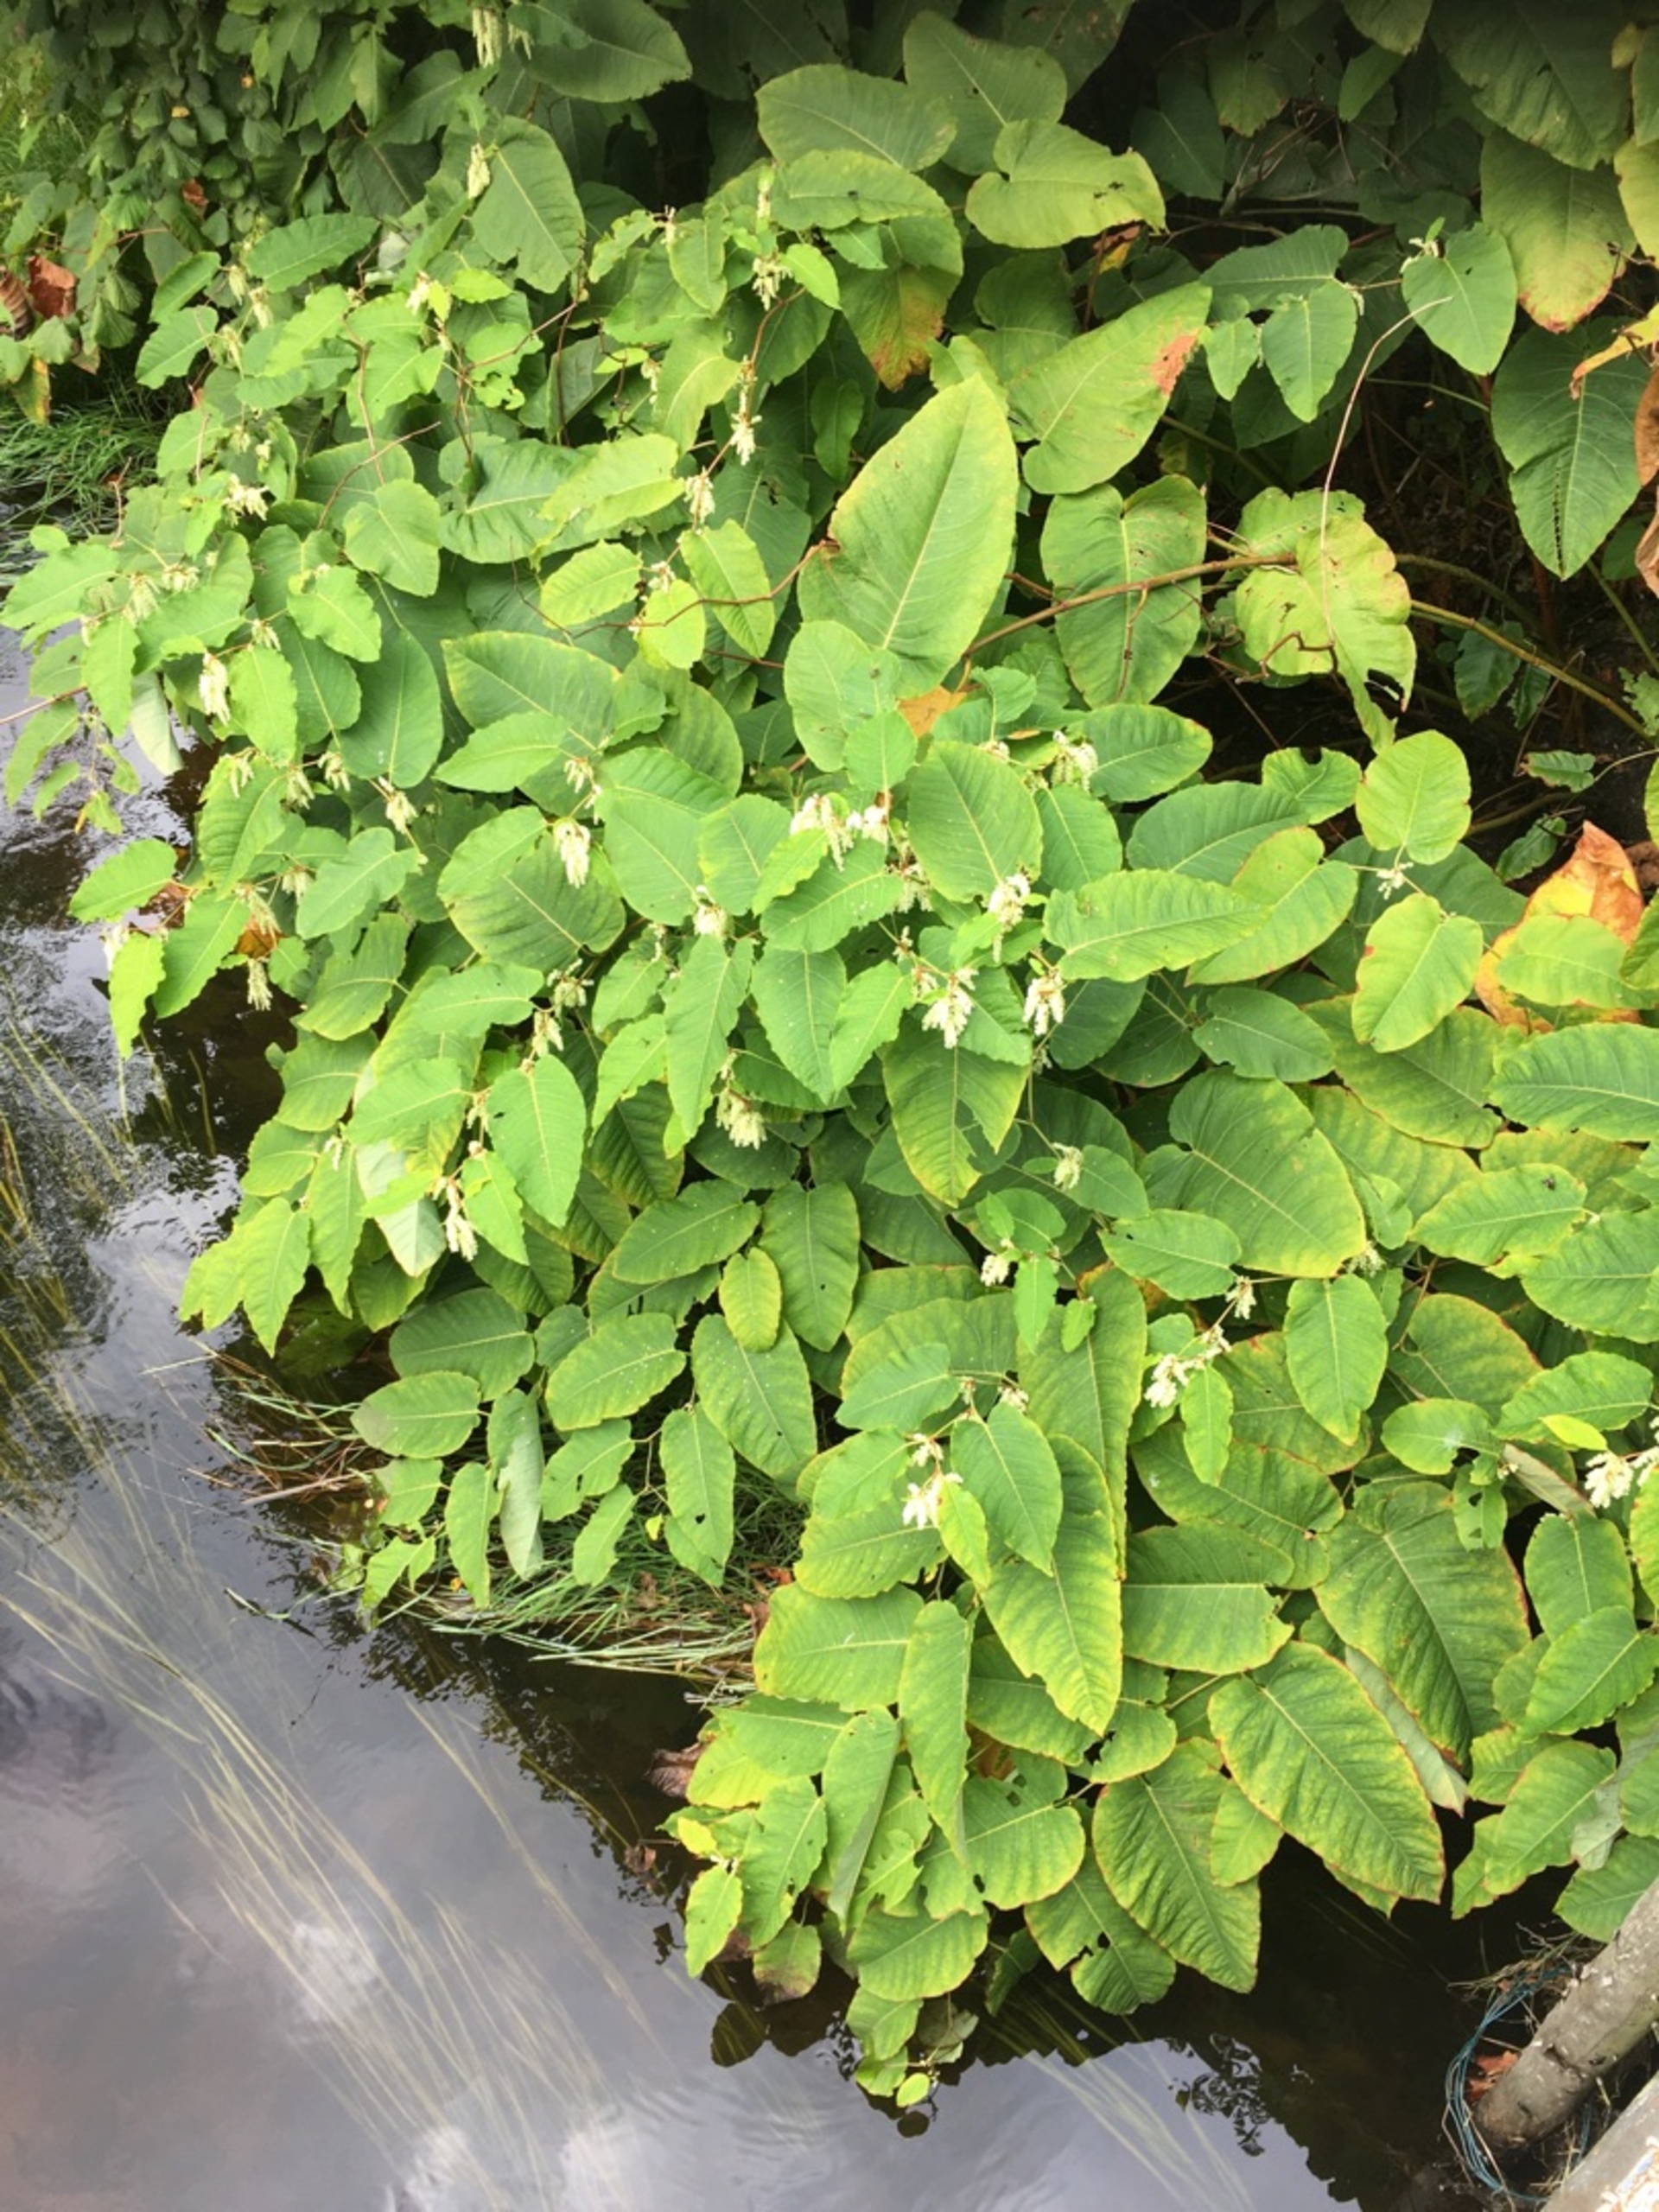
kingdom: Plantae
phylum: Tracheophyta
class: Magnoliopsida
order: Caryophyllales
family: Polygonaceae
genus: Reynoutria
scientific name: Reynoutria sachalinensis
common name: Kæmpe-pileurt
